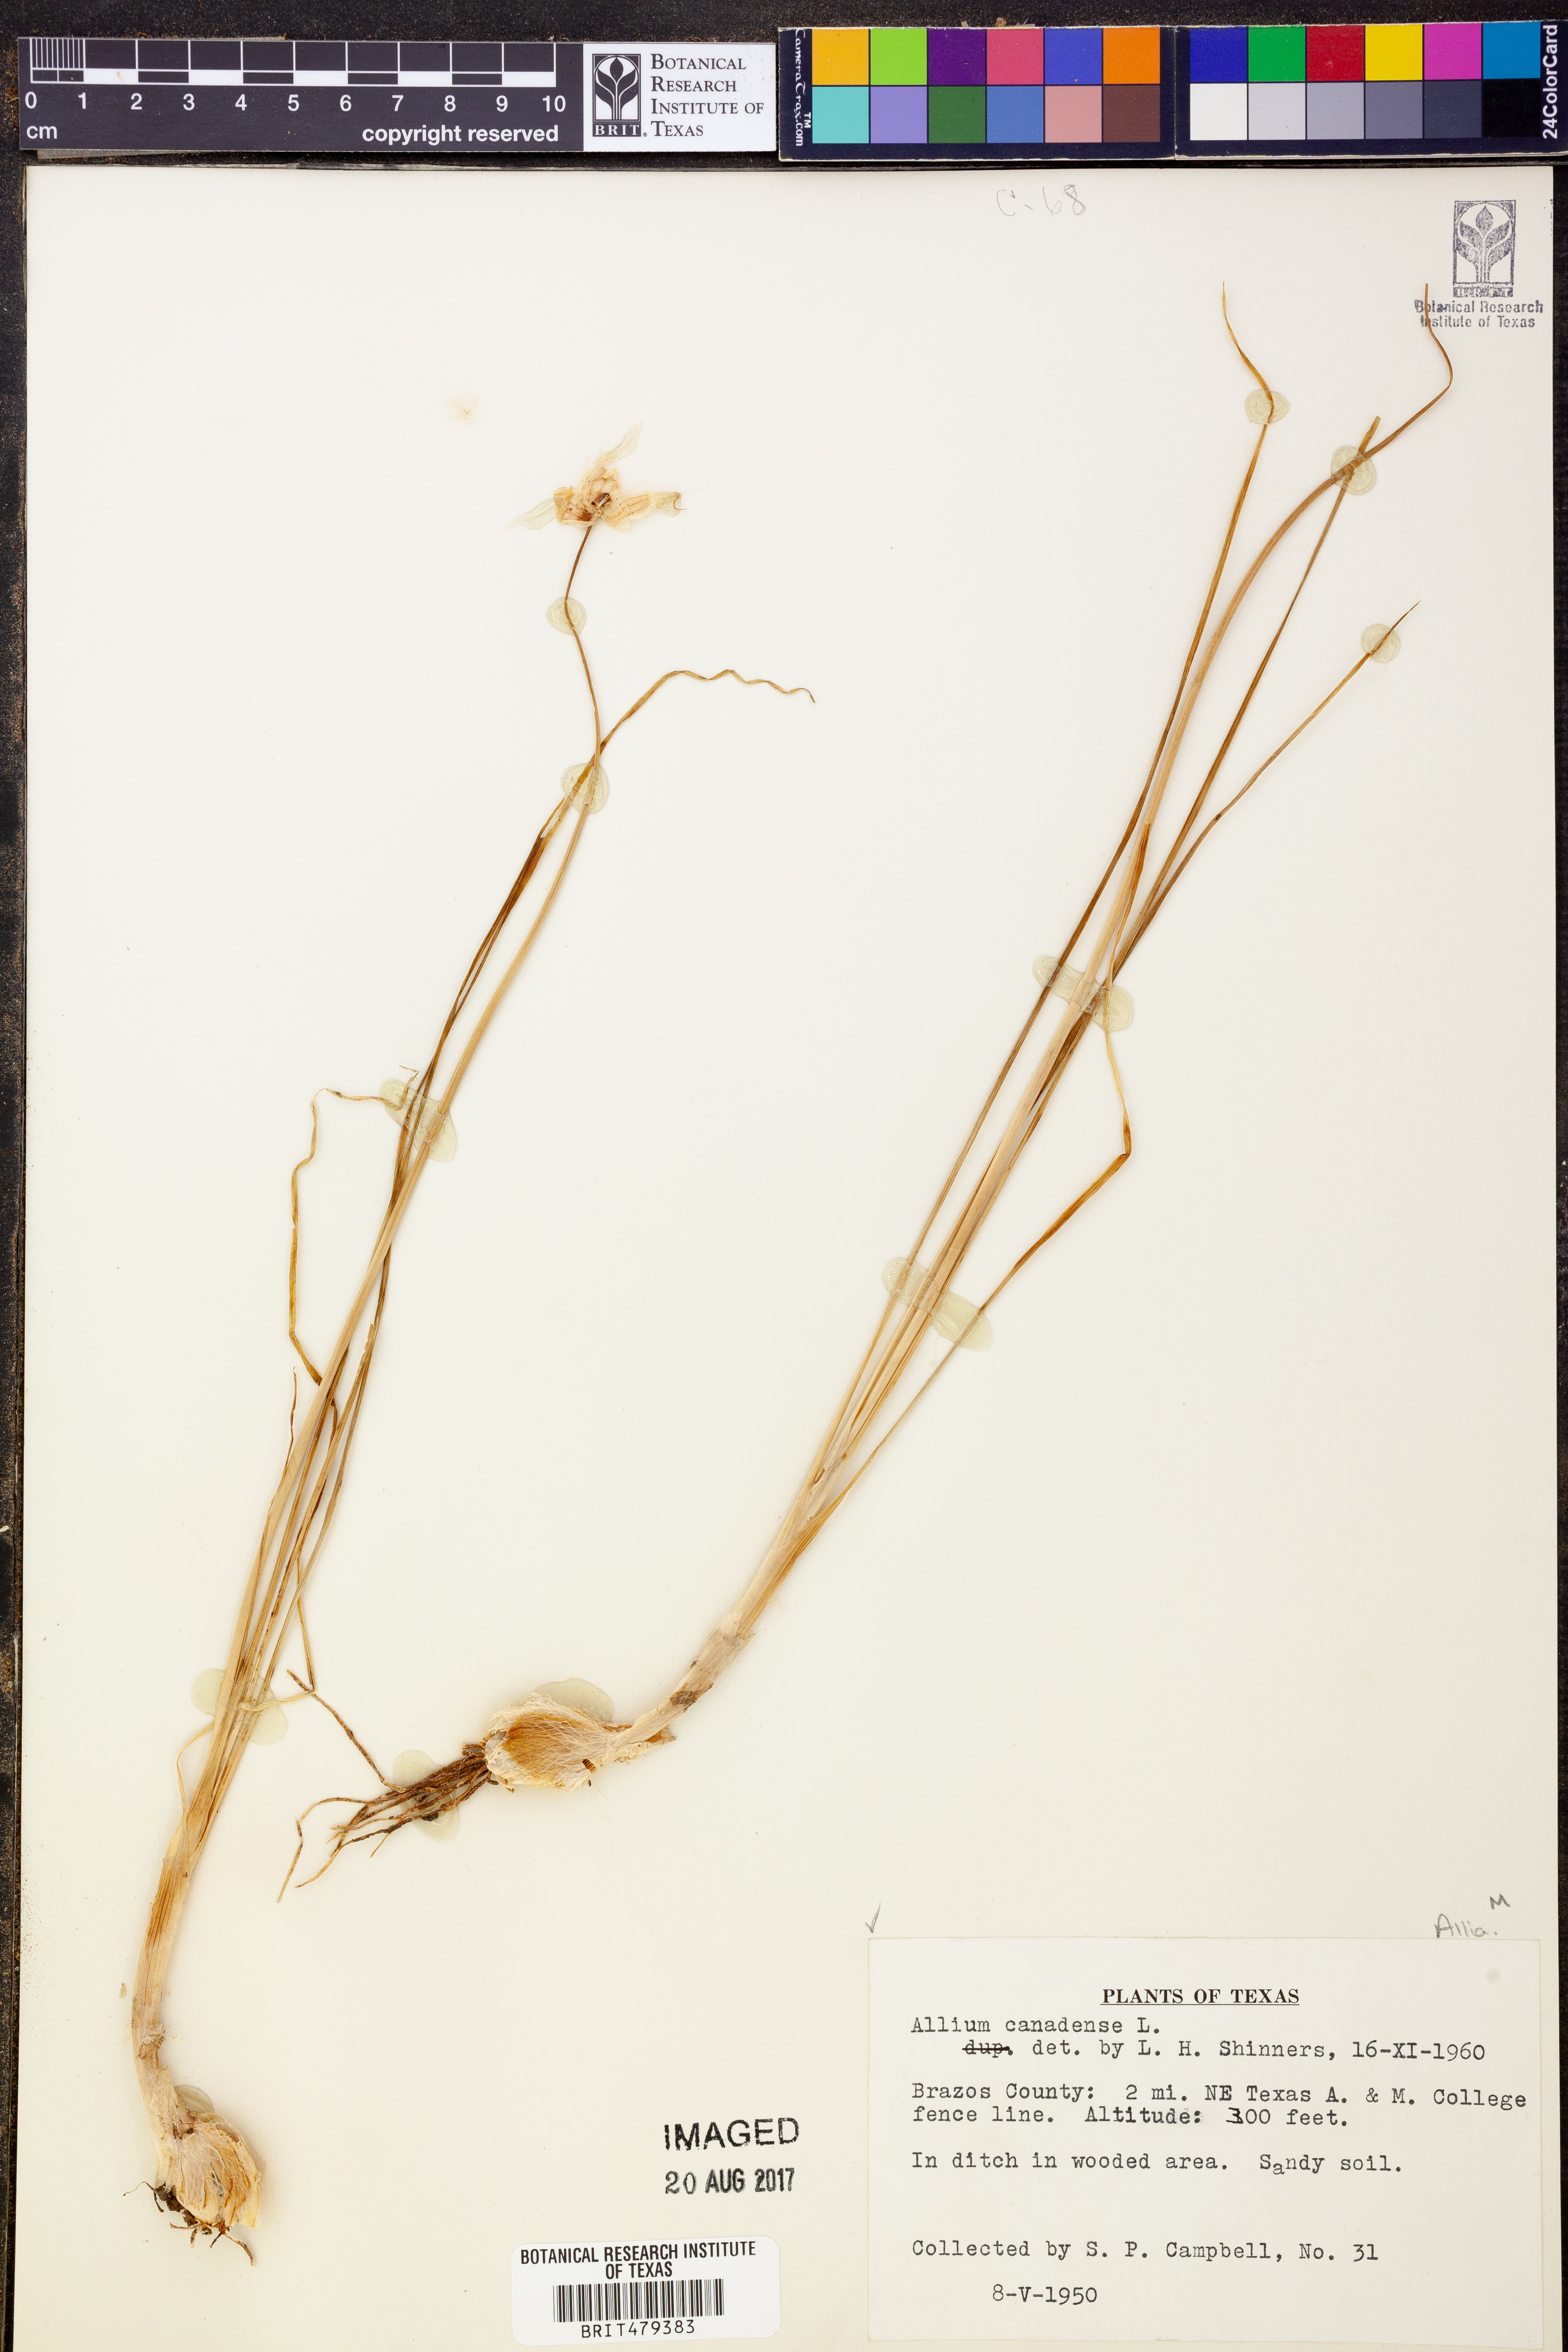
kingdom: Plantae
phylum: Tracheophyta
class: Liliopsida
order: Asparagales
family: Amaryllidaceae
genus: Allium
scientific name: Allium canadense
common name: Meadow garlic
